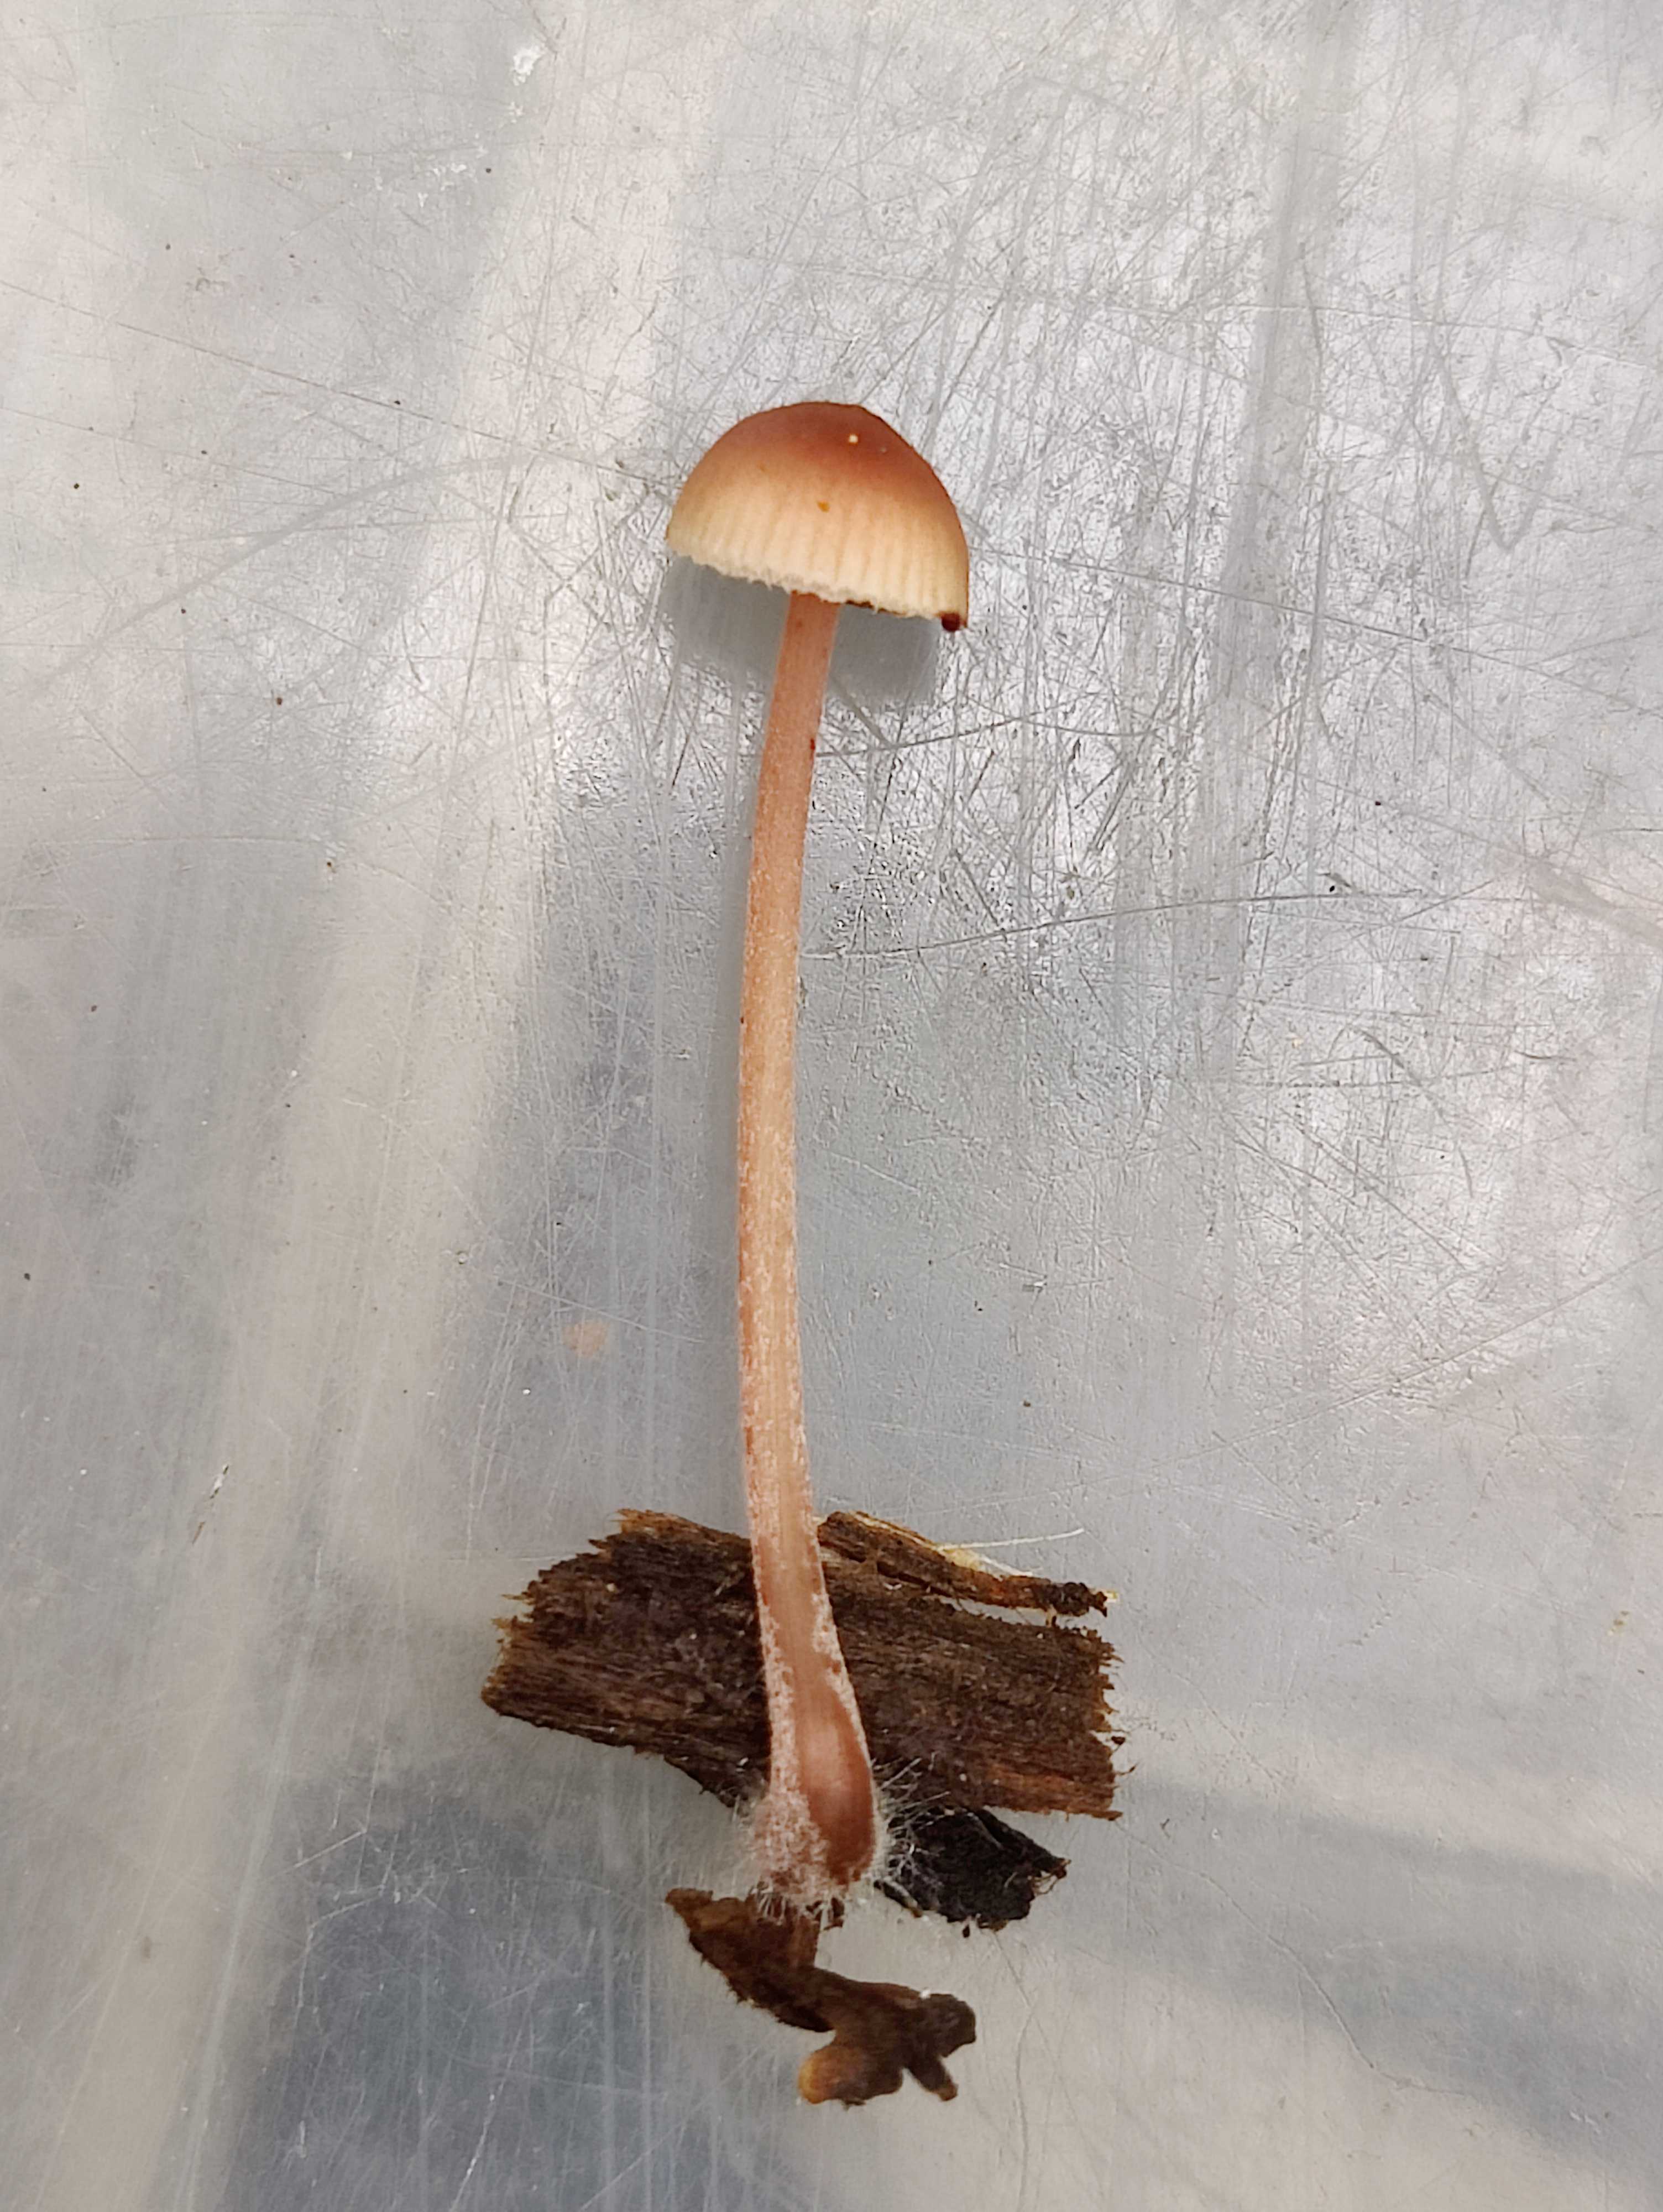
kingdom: Fungi
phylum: Basidiomycota
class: Agaricomycetes
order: Agaricales
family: Mycenaceae
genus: Mycena
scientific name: Mycena sanguinolenta
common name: rødmælket huesvamp
